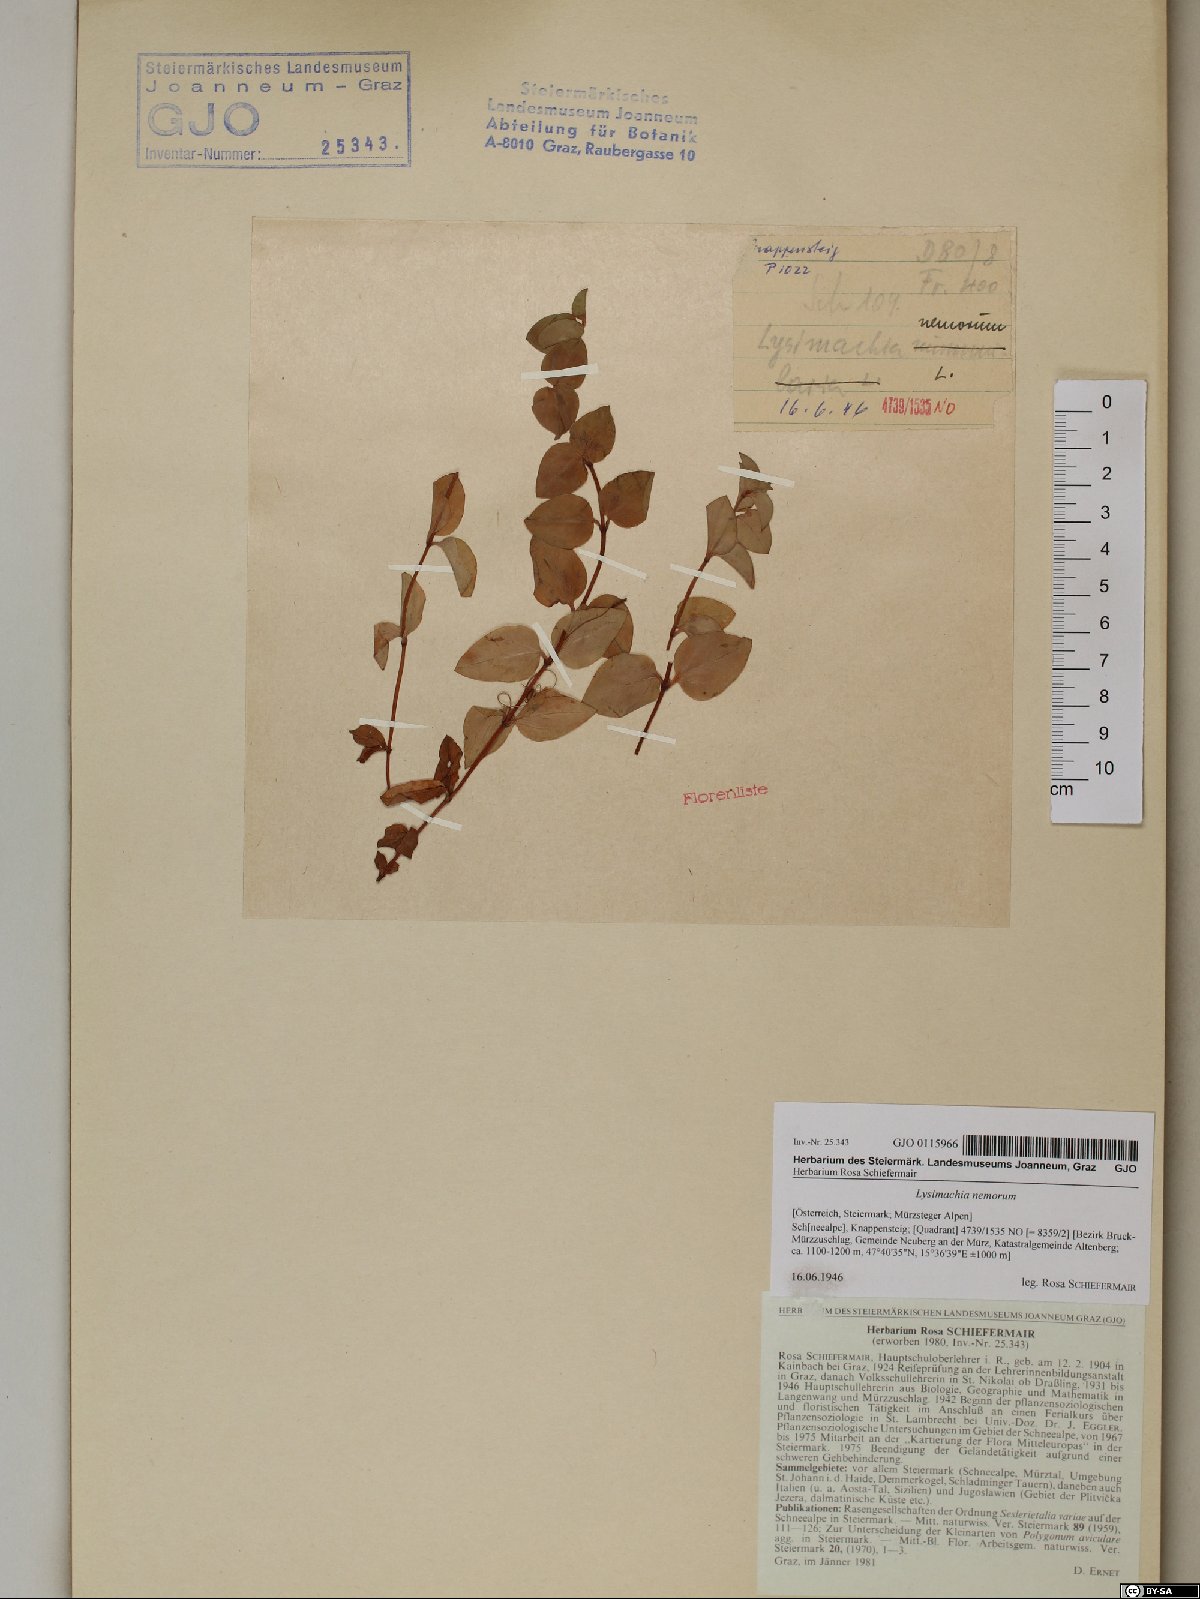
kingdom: Plantae
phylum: Tracheophyta
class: Magnoliopsida
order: Ericales
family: Primulaceae
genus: Lysimachia
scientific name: Lysimachia nemorum
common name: Yellow pimpernel
